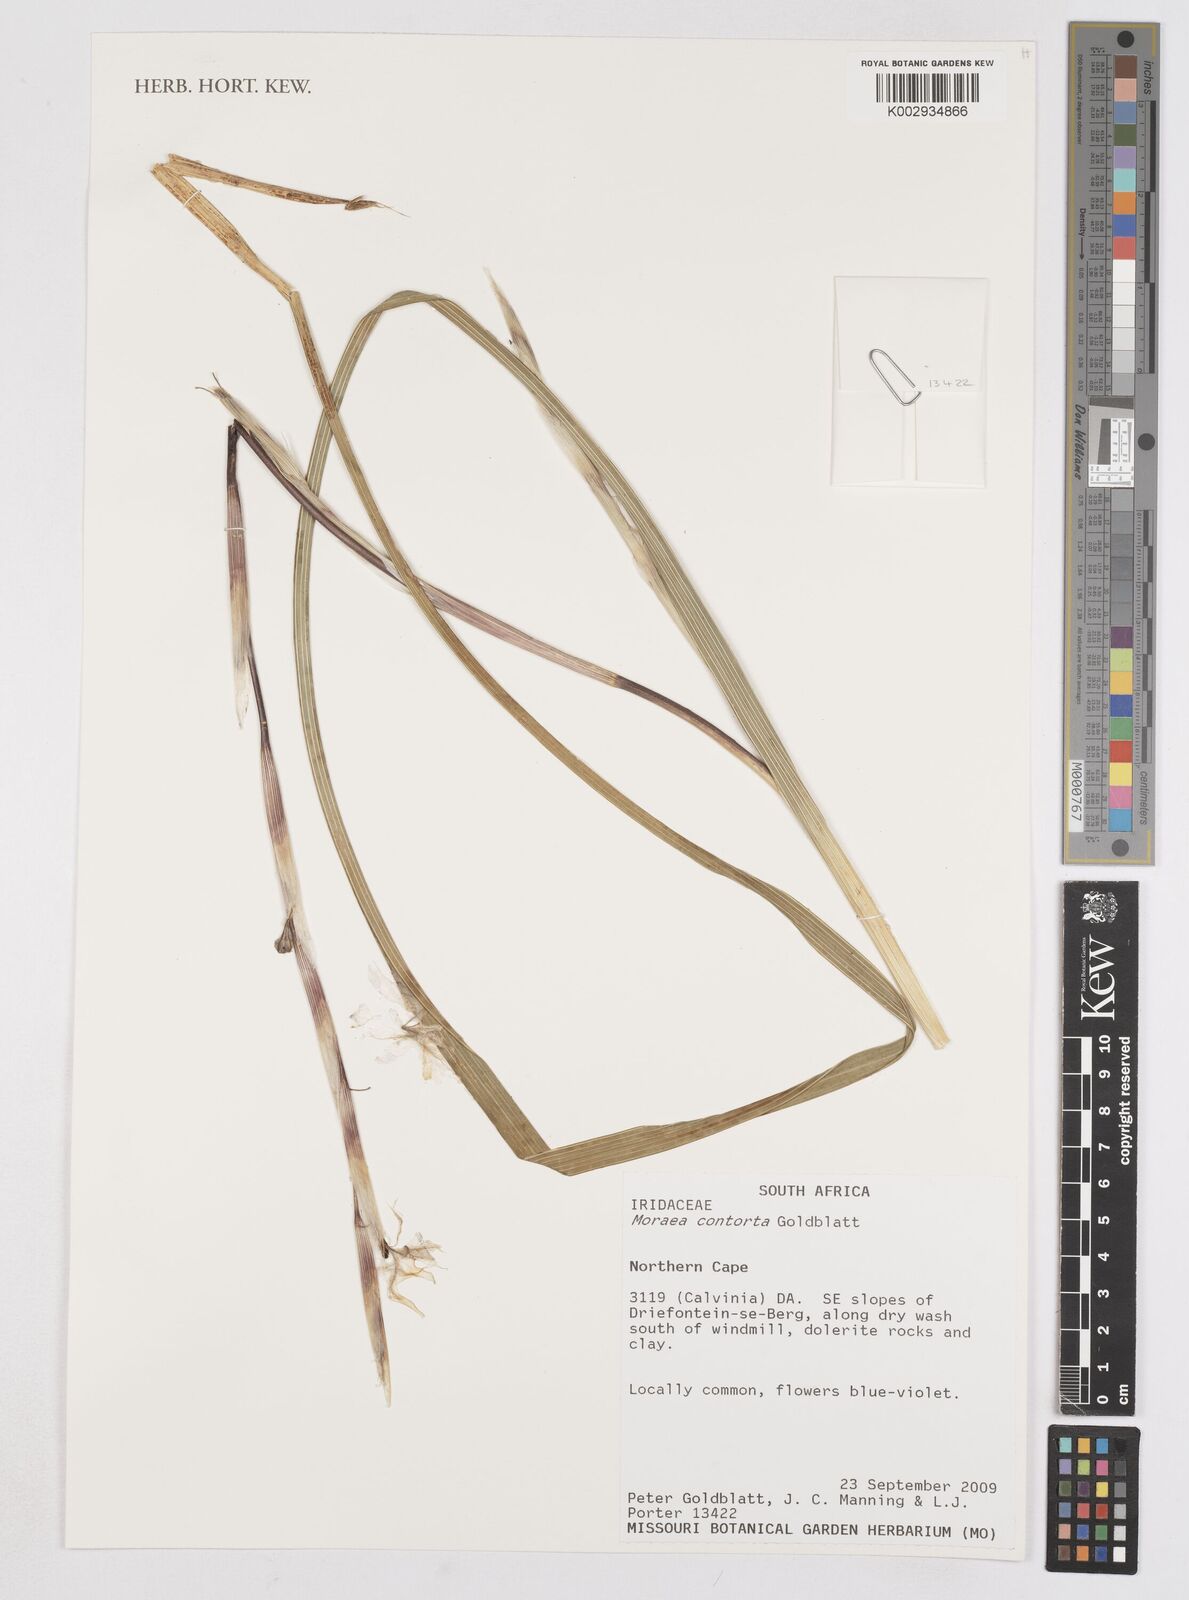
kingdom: Plantae
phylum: Tracheophyta
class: Liliopsida
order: Asparagales
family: Iridaceae
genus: Moraea
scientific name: Moraea contorta
